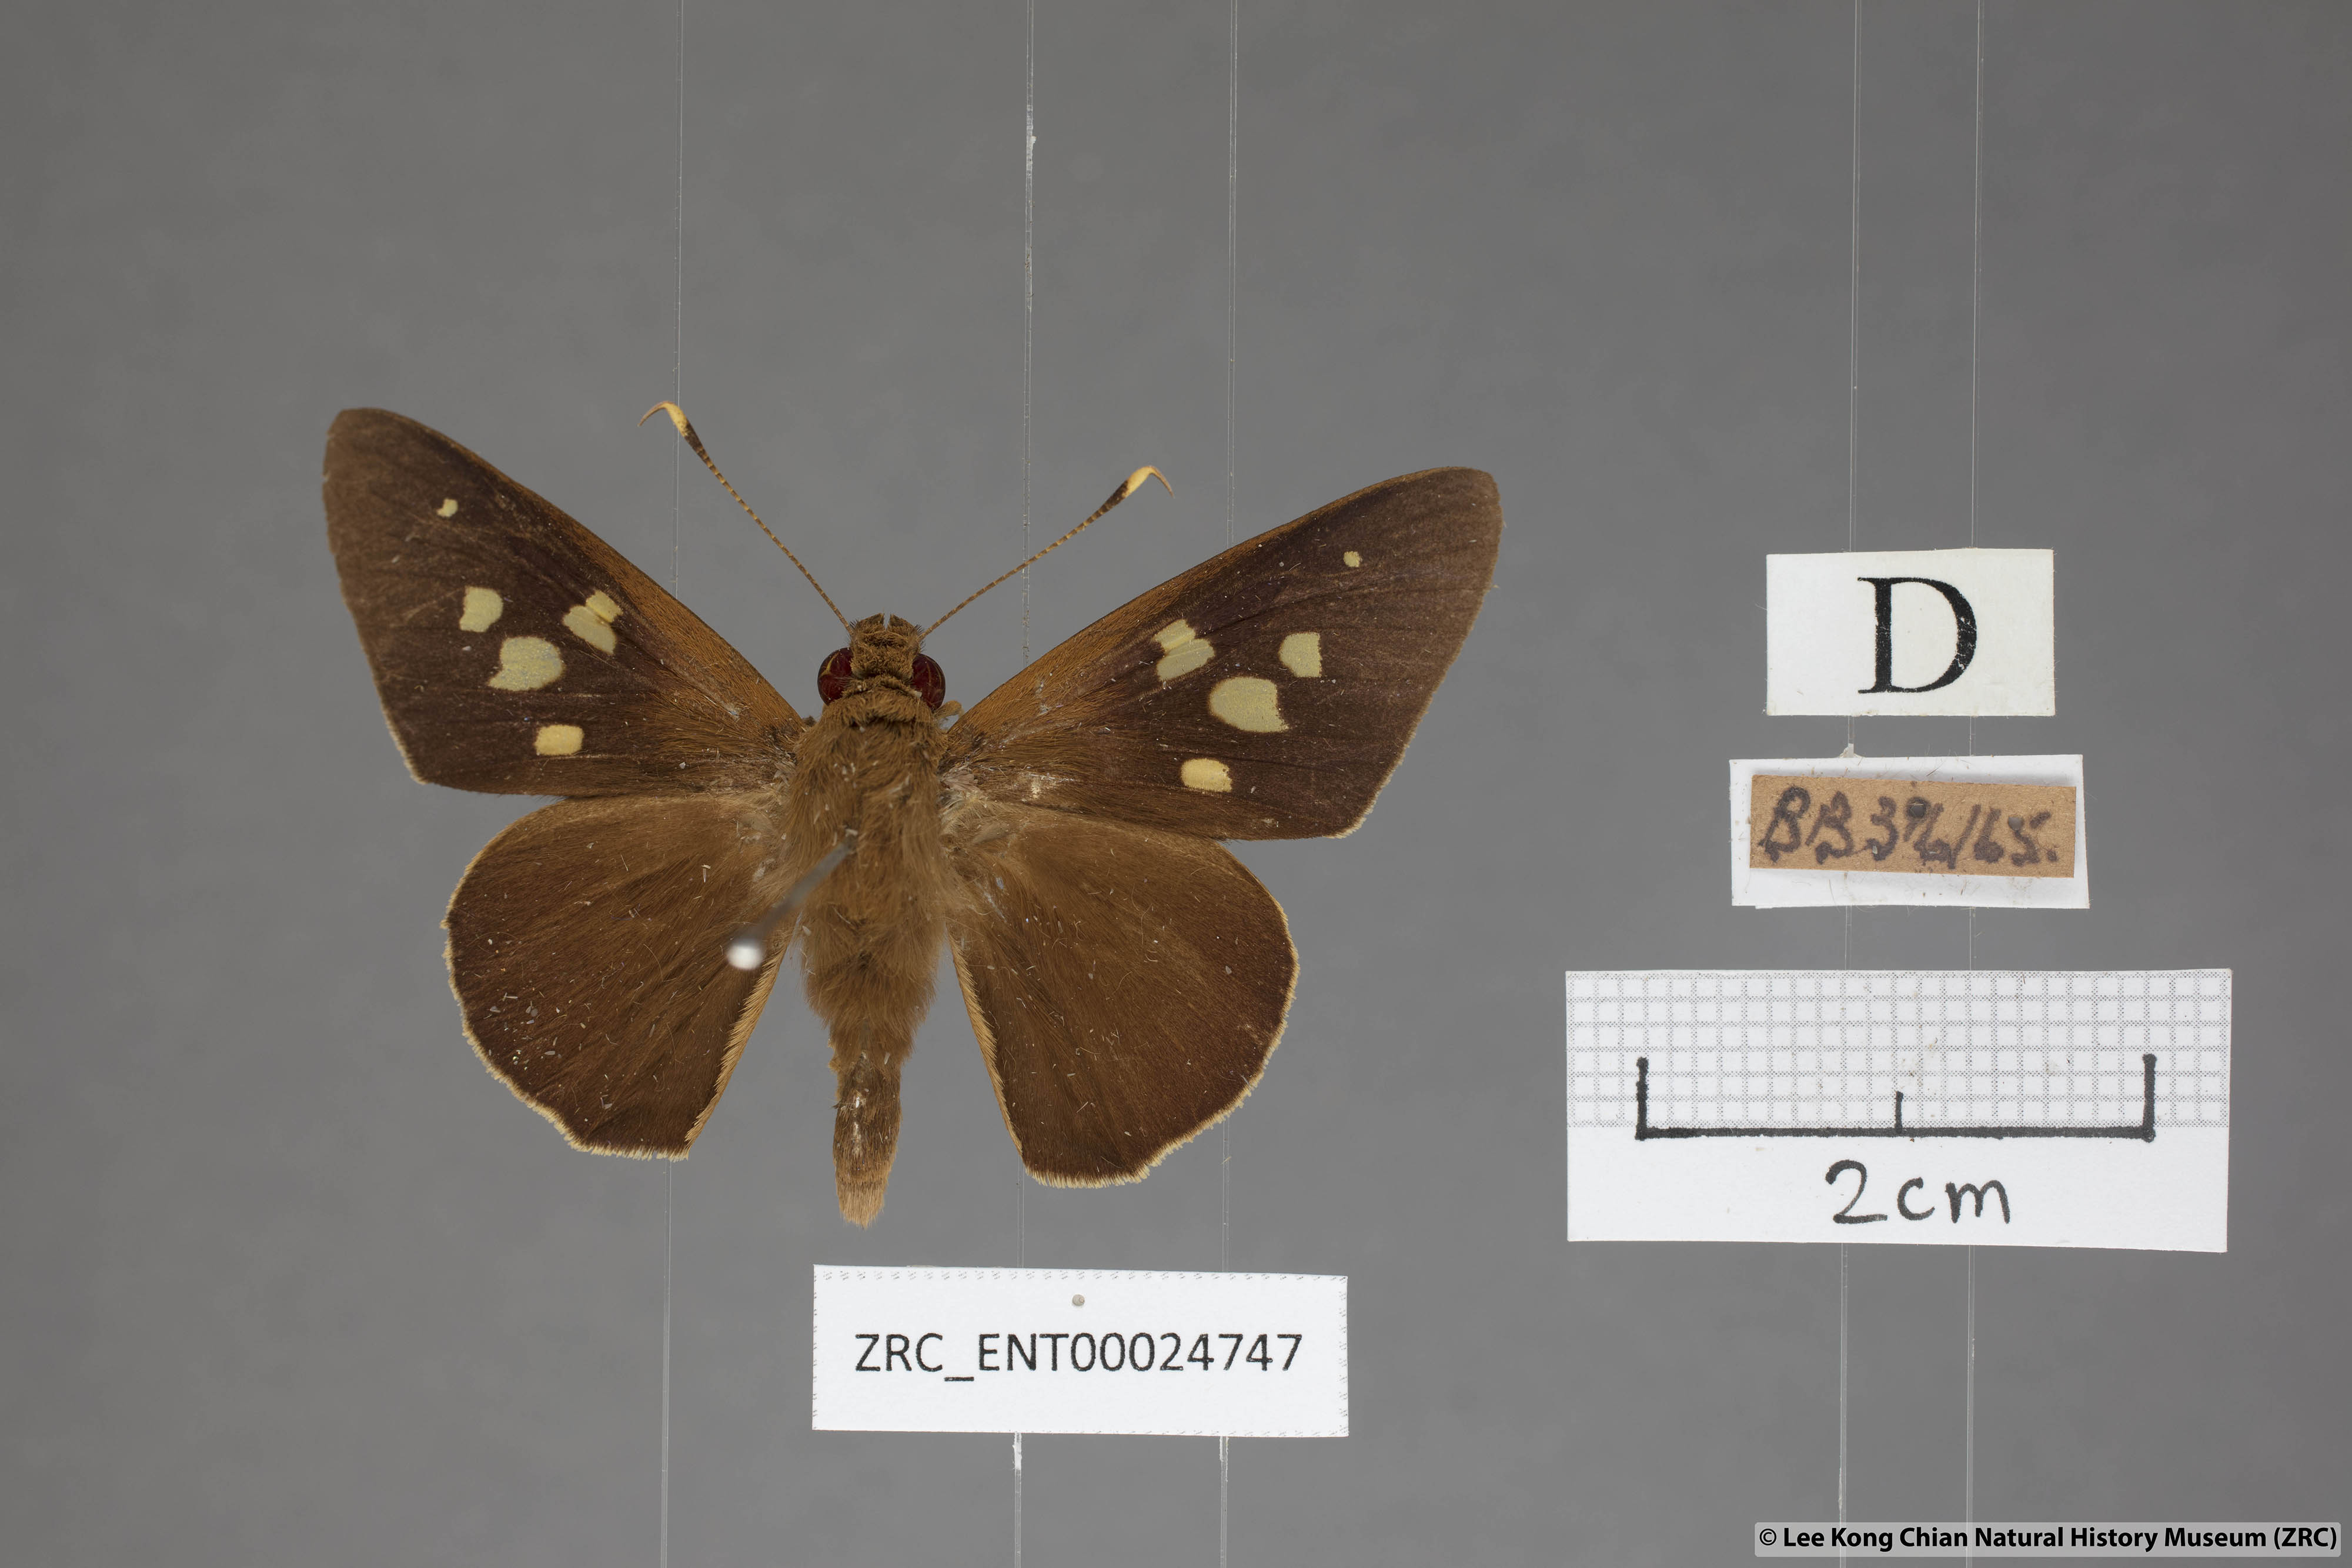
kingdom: Animalia
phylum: Arthropoda
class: Insecta
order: Lepidoptera
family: Hesperiidae
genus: Hidari
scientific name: Hidari irava
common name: Coconut skipper
